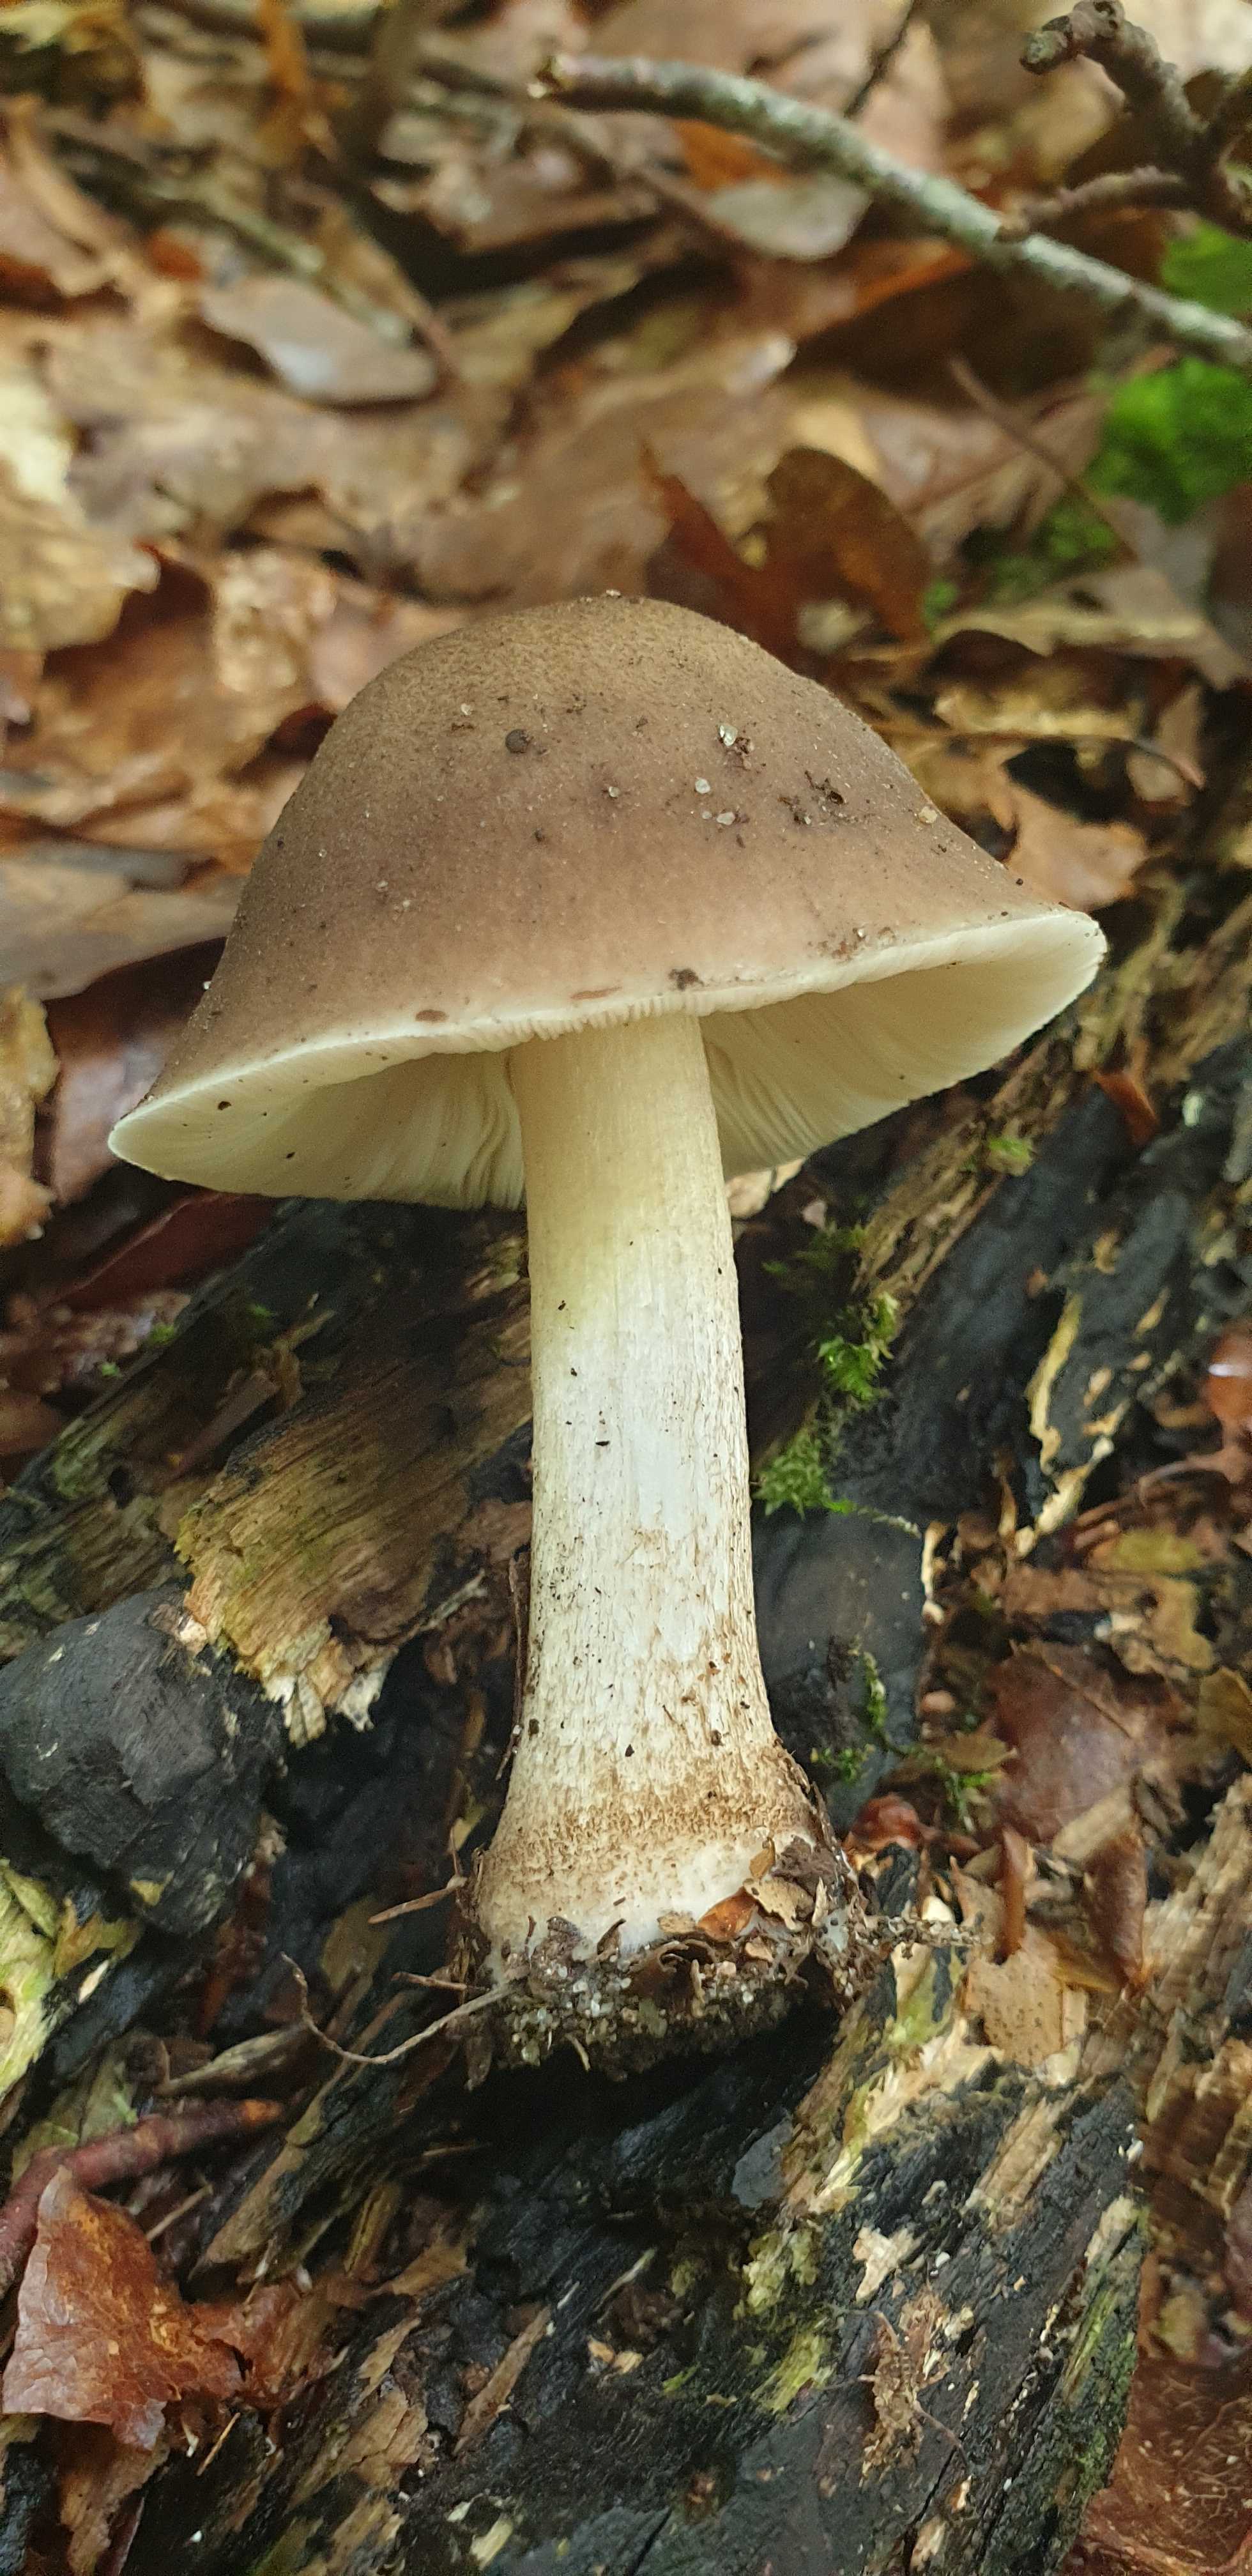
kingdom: Fungi
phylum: Basidiomycota
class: Agaricomycetes
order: Agaricales
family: Pluteaceae
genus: Pluteus
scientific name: Pluteus cervinus
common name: sodfarvet skærmhat
